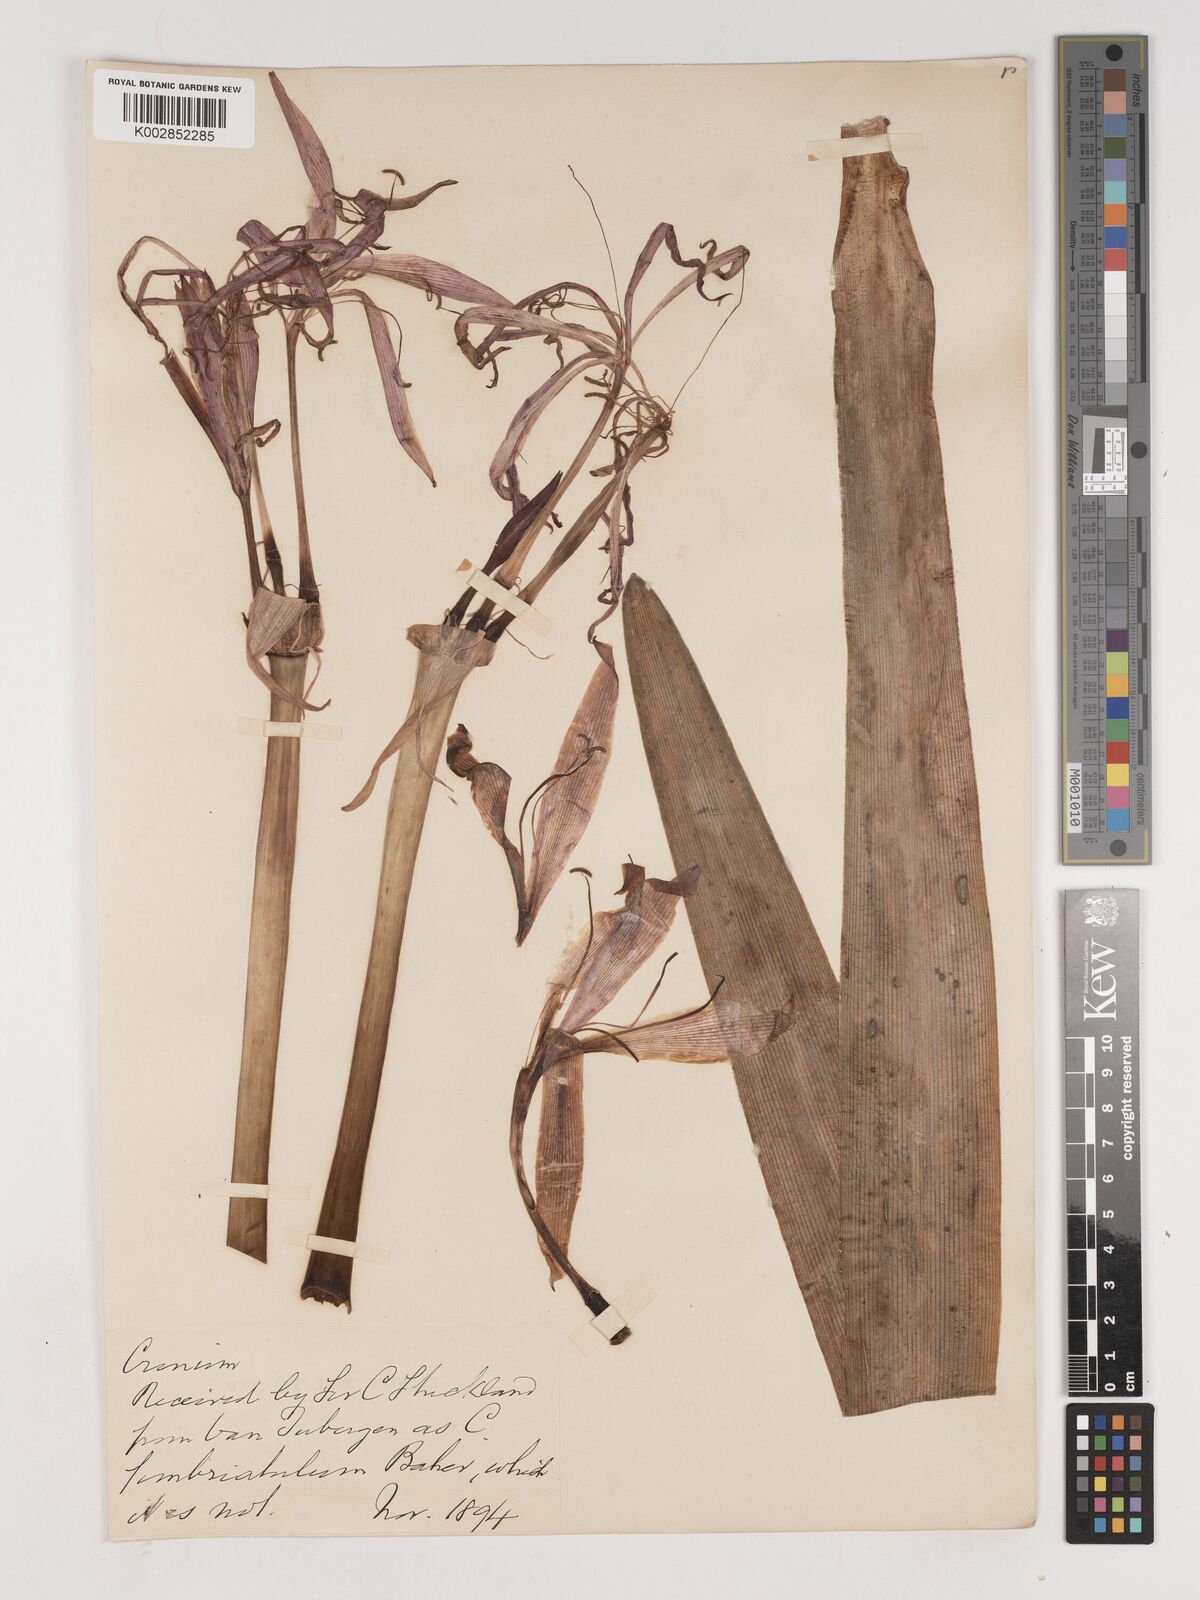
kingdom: Plantae
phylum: Tracheophyta
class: Liliopsida
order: Asparagales
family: Amaryllidaceae
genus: Crinum
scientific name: Crinum
